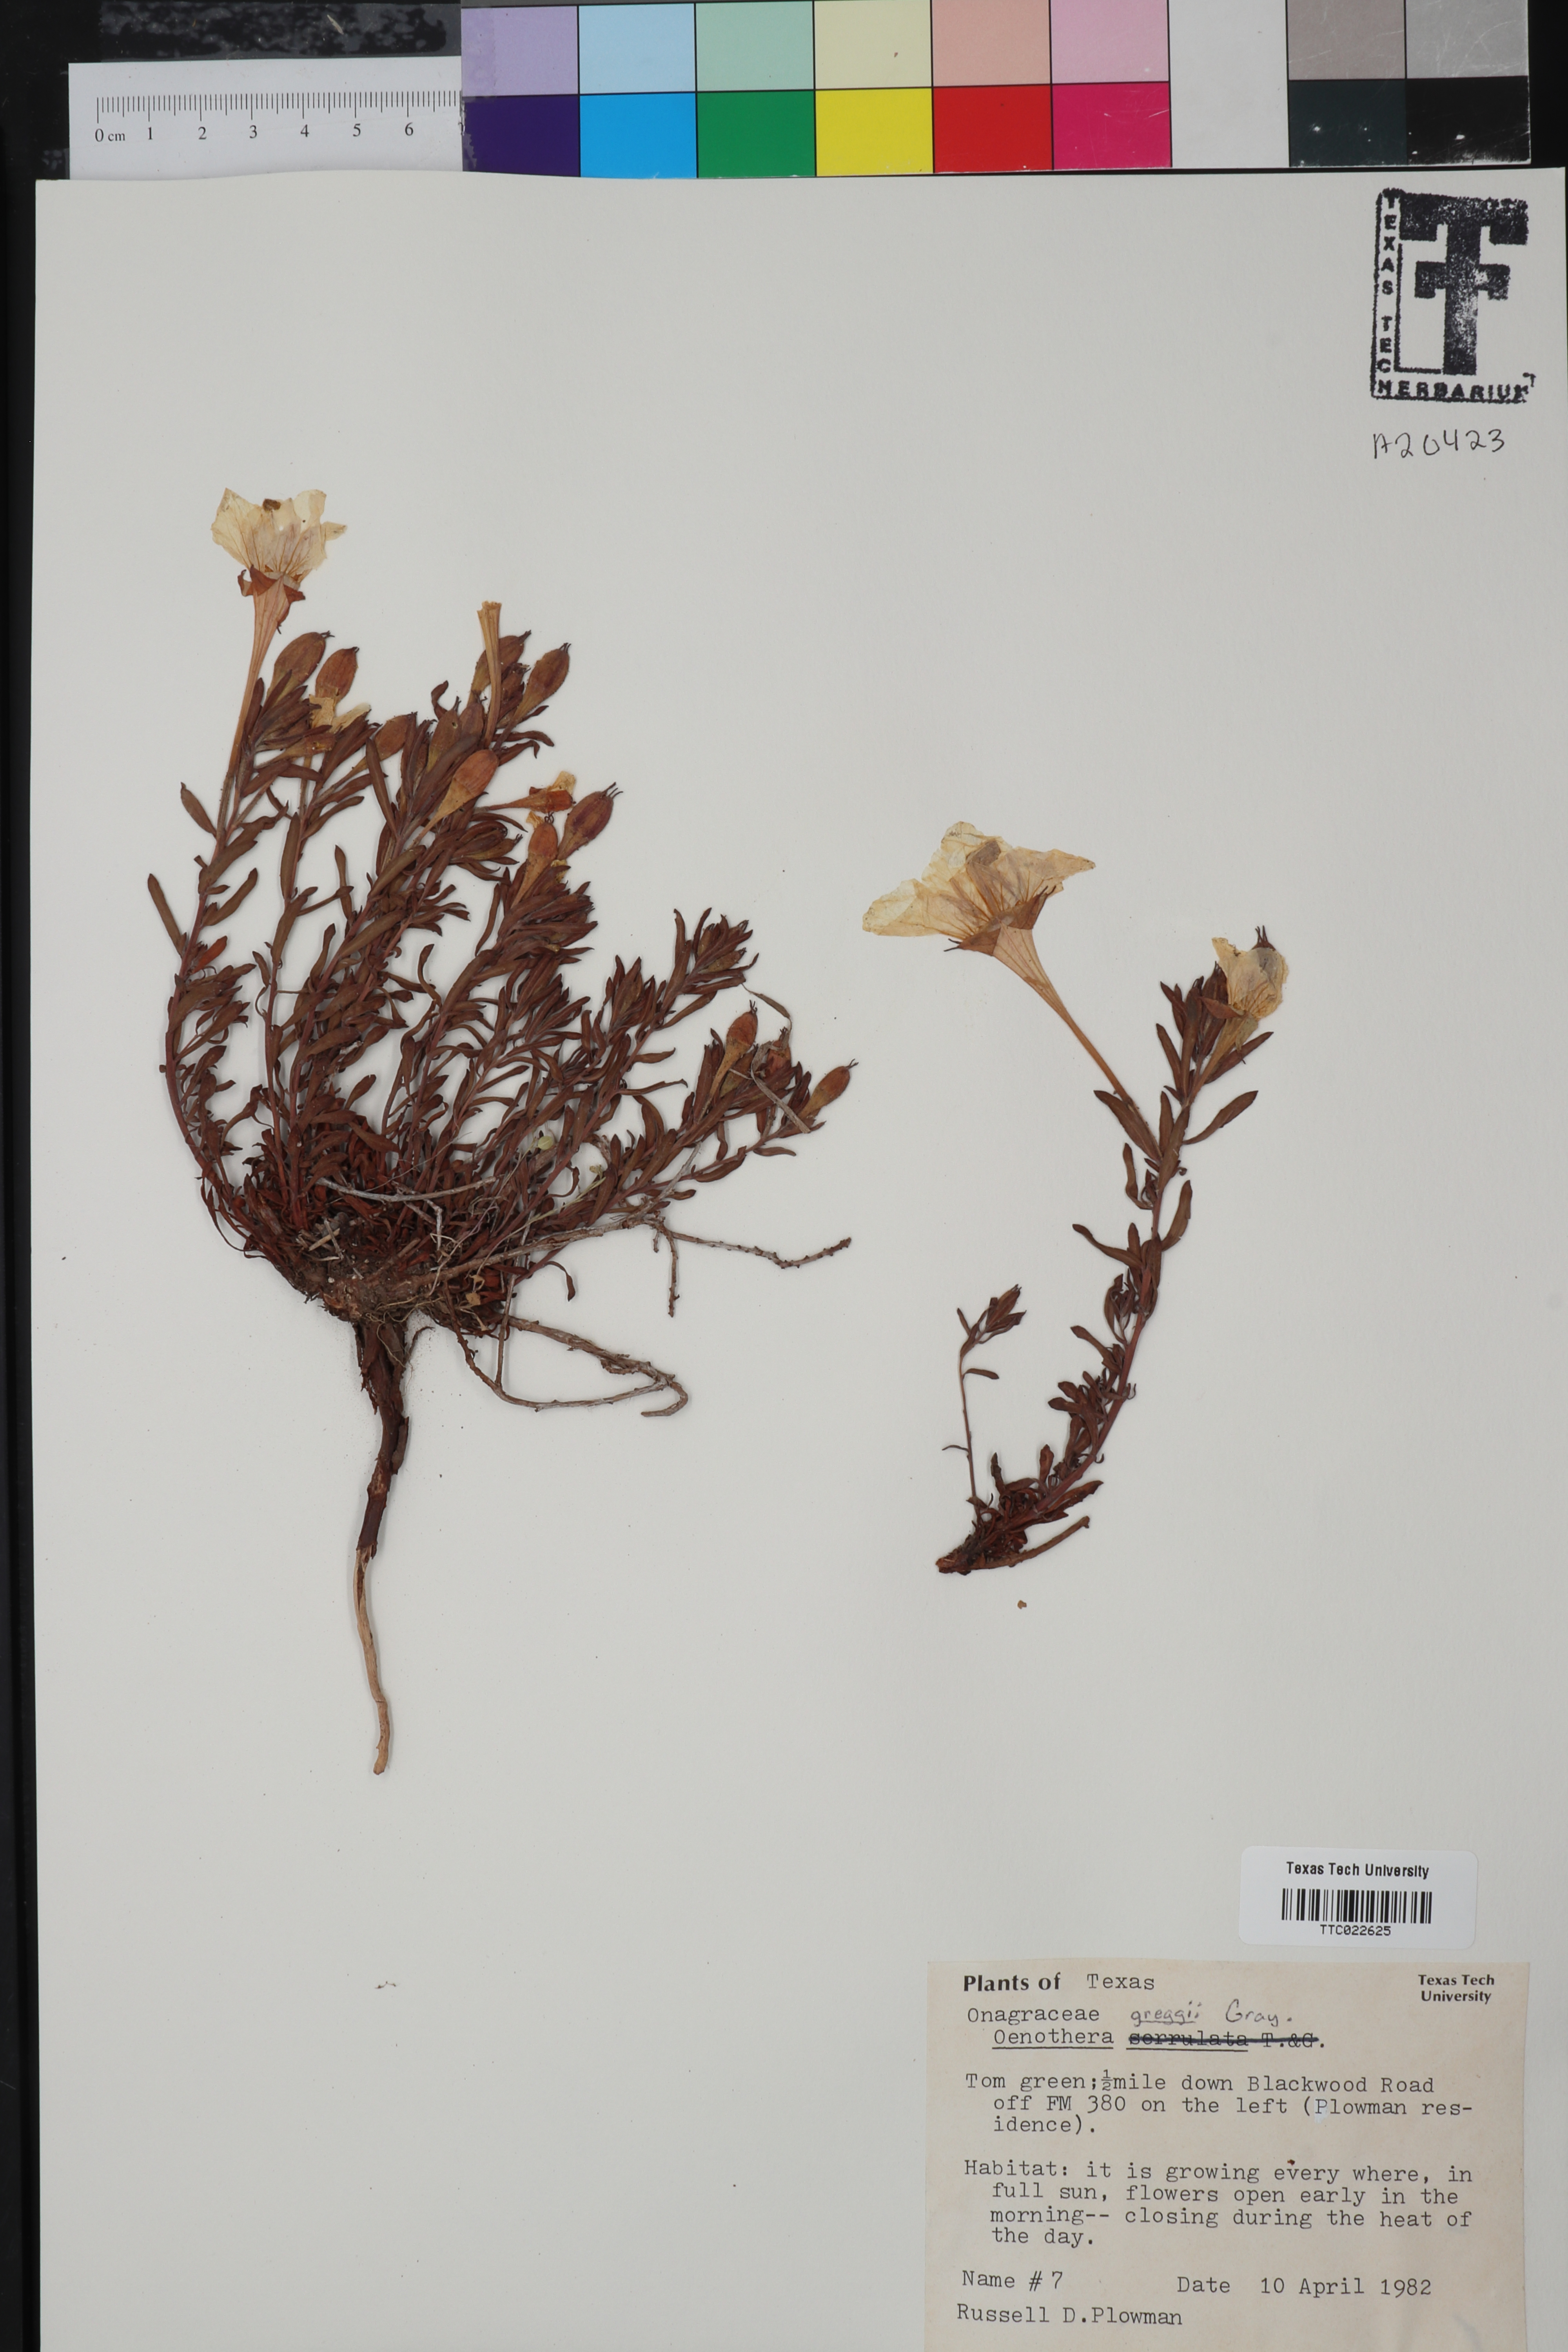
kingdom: Plantae
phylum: Tracheophyta
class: Magnoliopsida
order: Myrtales
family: Onagraceae
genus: Oenothera
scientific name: Oenothera hartwegii
